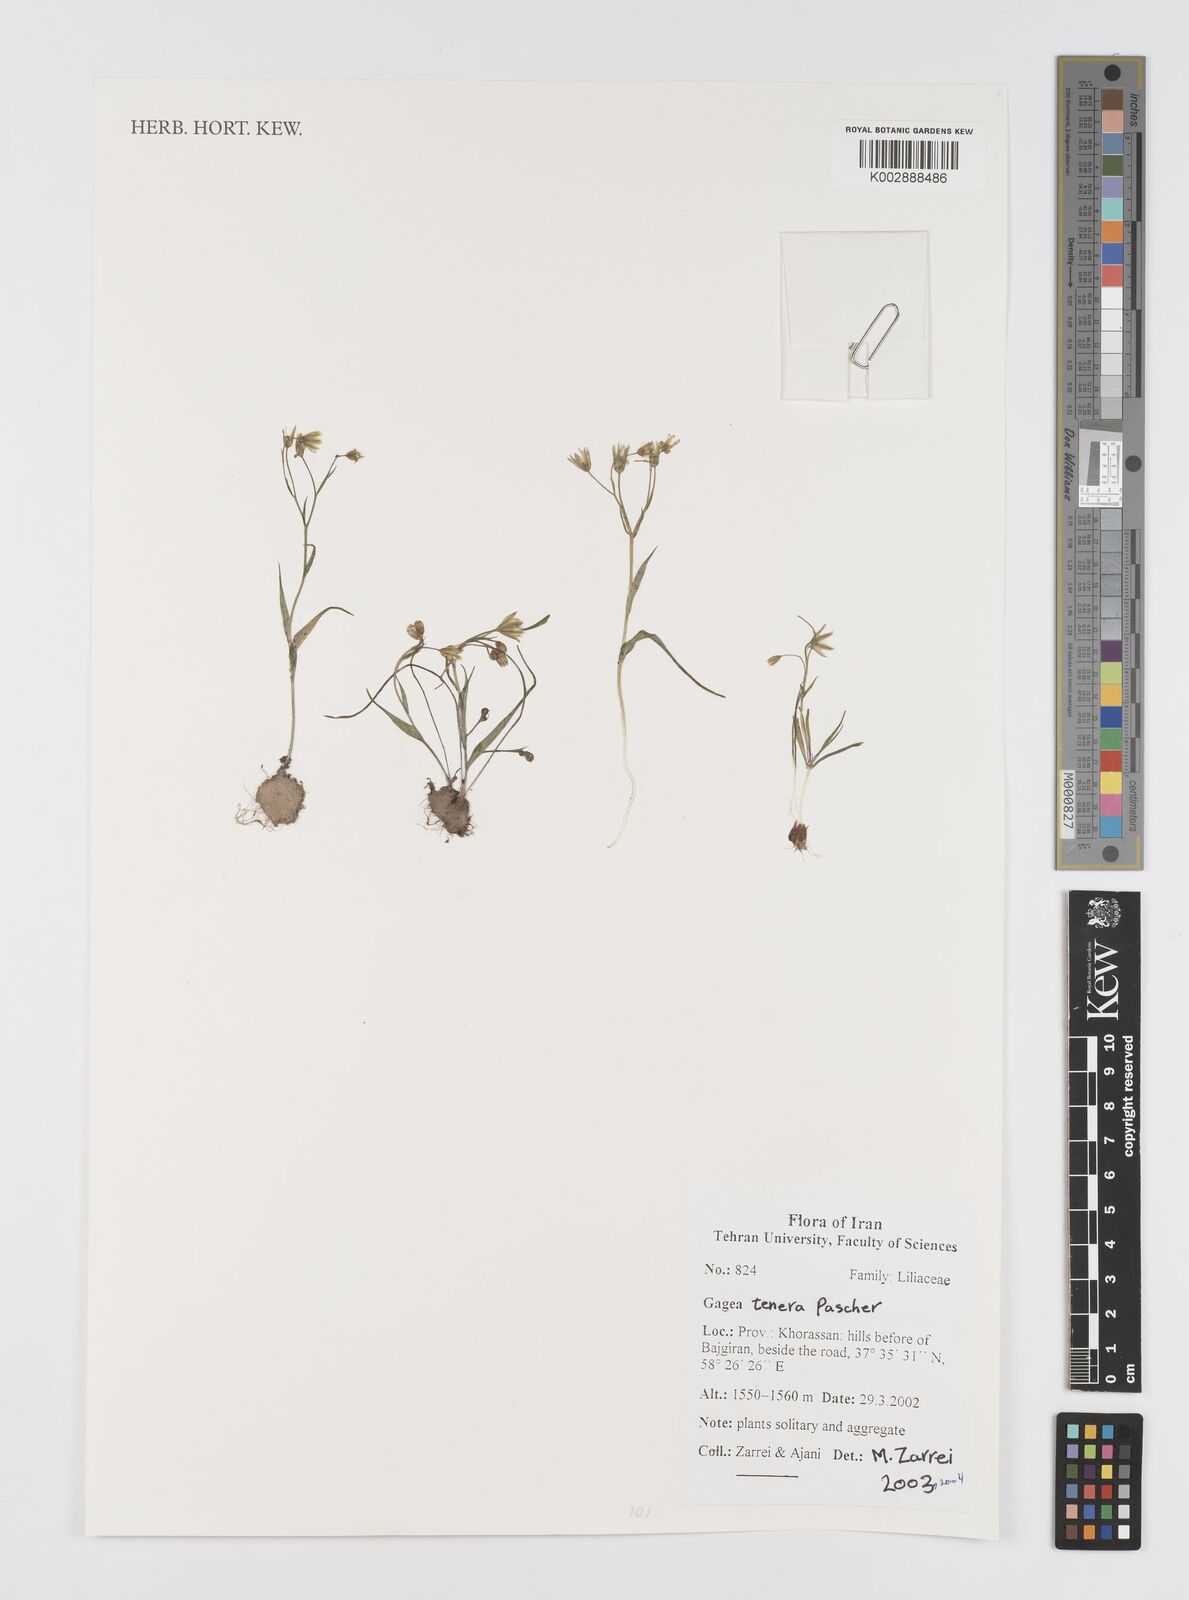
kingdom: Plantae
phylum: Tracheophyta
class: Liliopsida
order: Liliales
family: Liliaceae
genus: Gagea
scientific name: Gagea tenera
